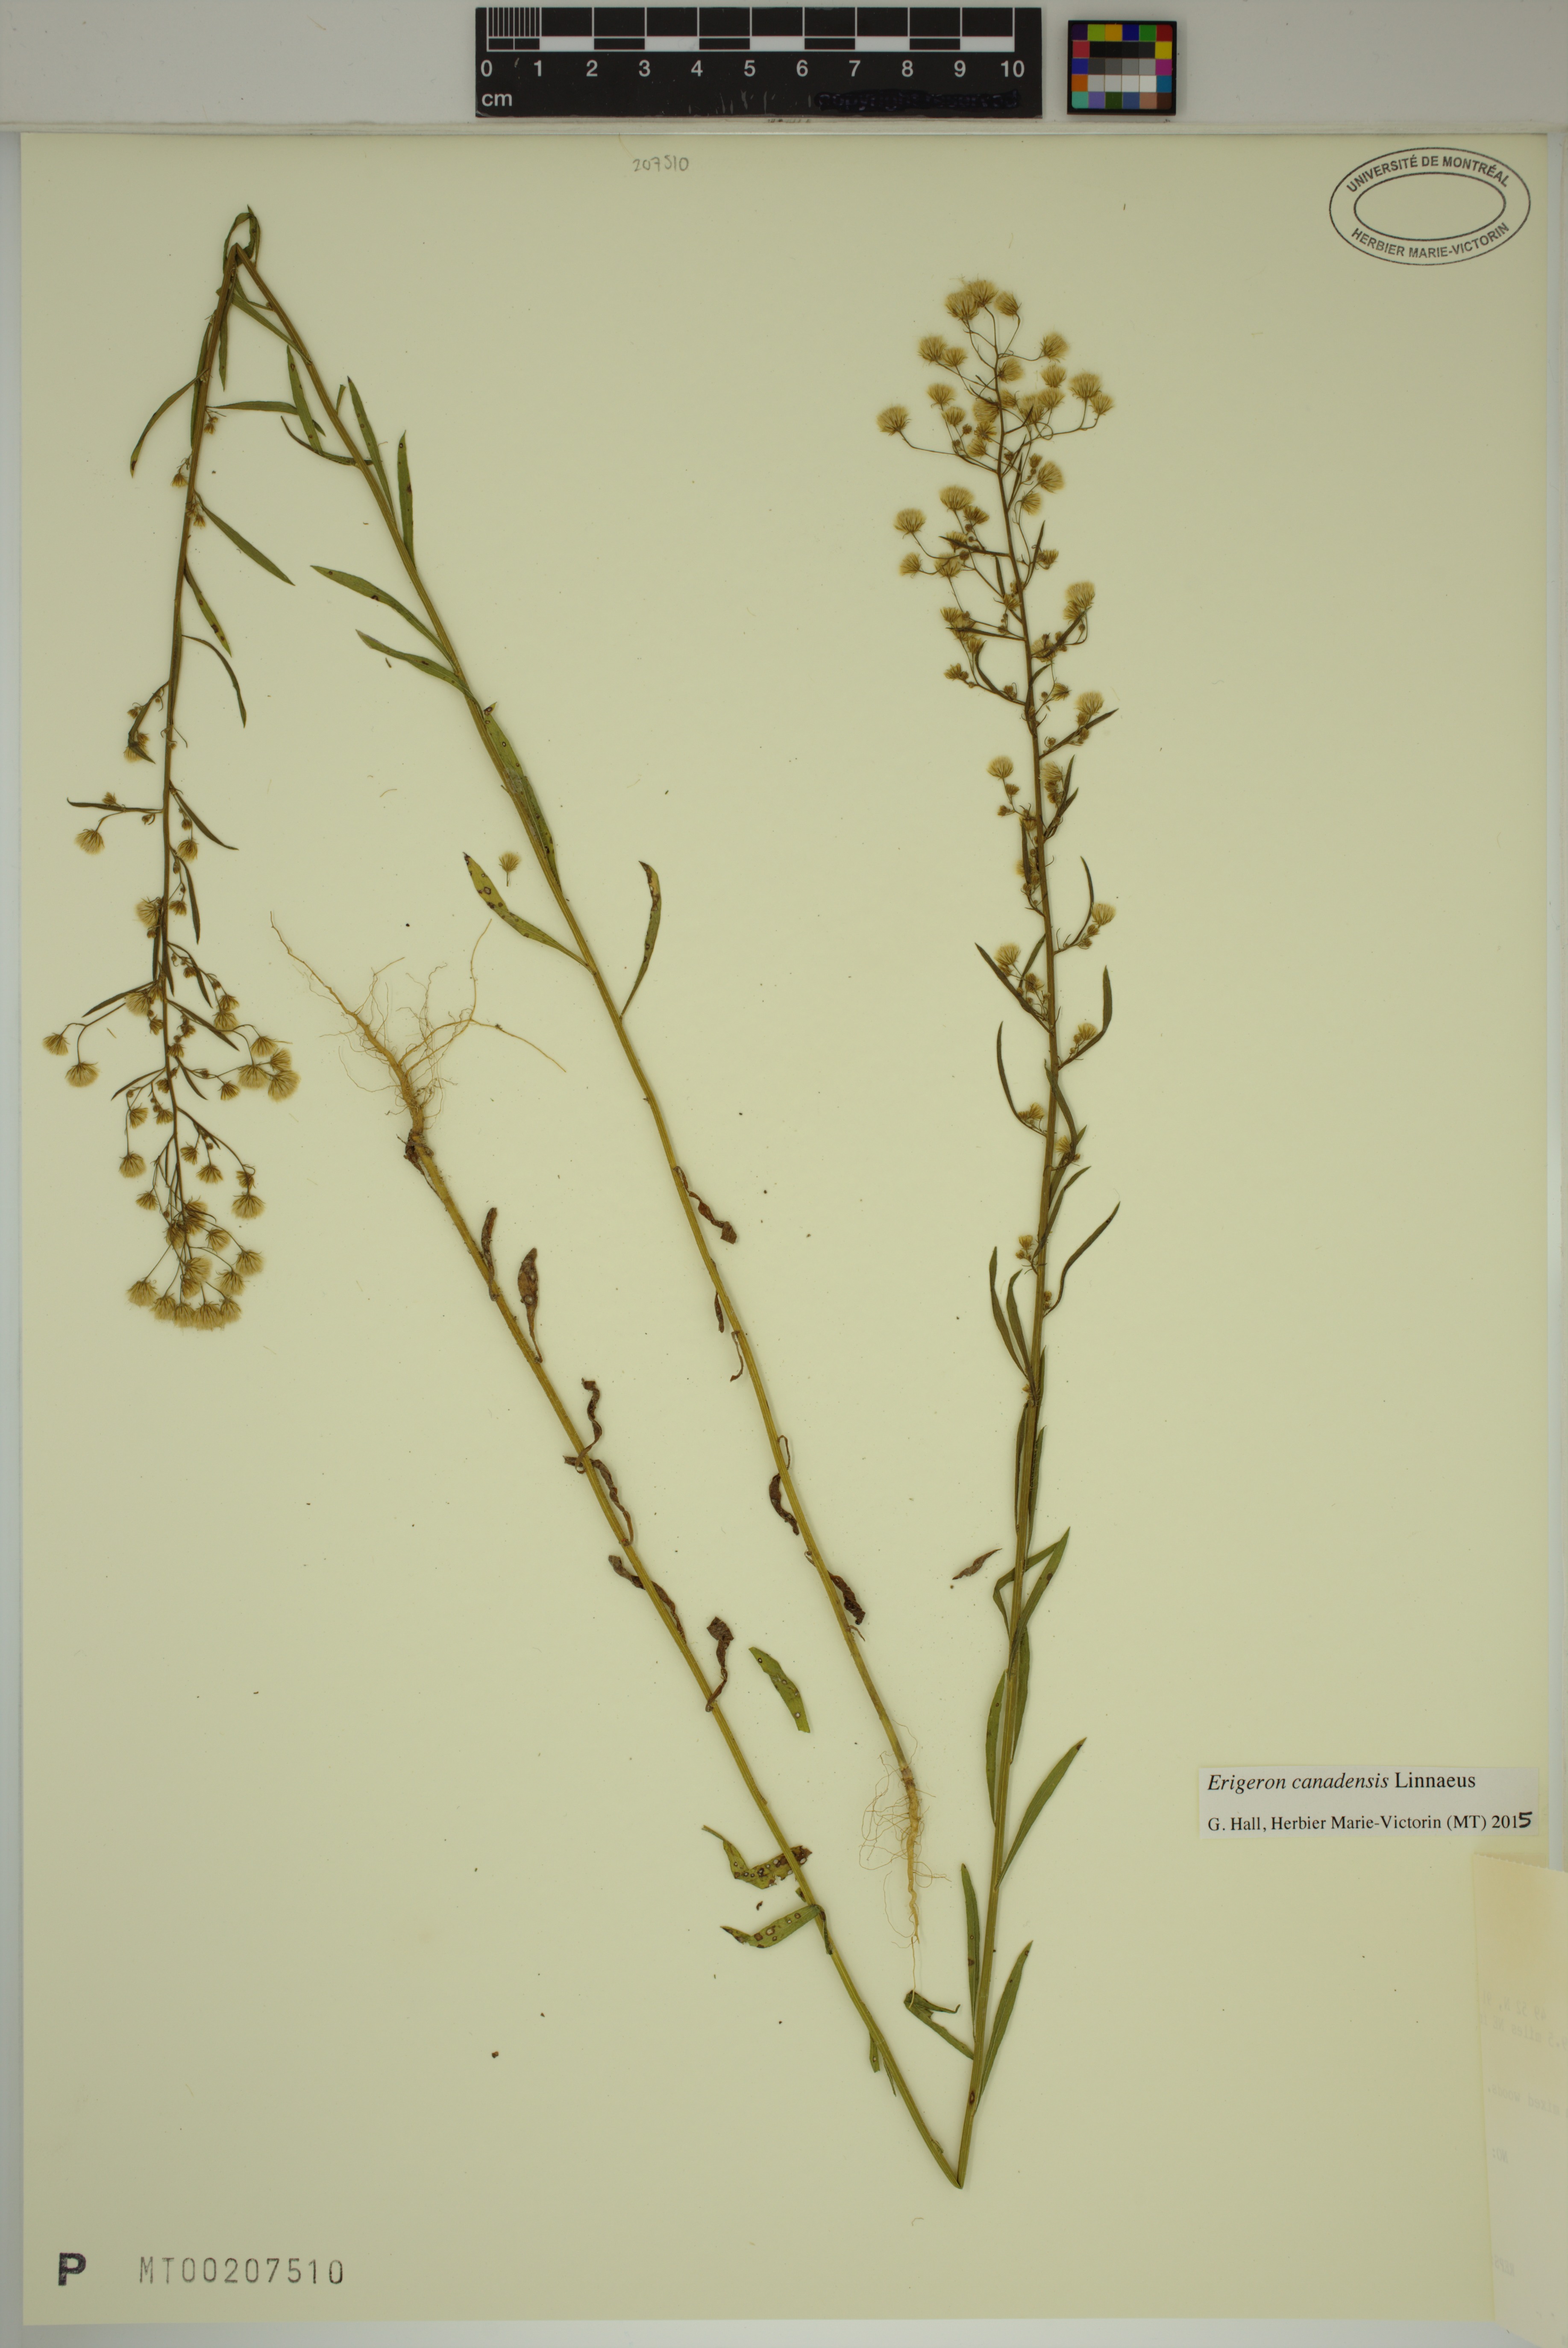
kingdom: Plantae
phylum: Tracheophyta
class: Magnoliopsida
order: Asterales
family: Asteraceae
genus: Erigeron
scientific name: Erigeron canadensis
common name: Canadian fleabane
